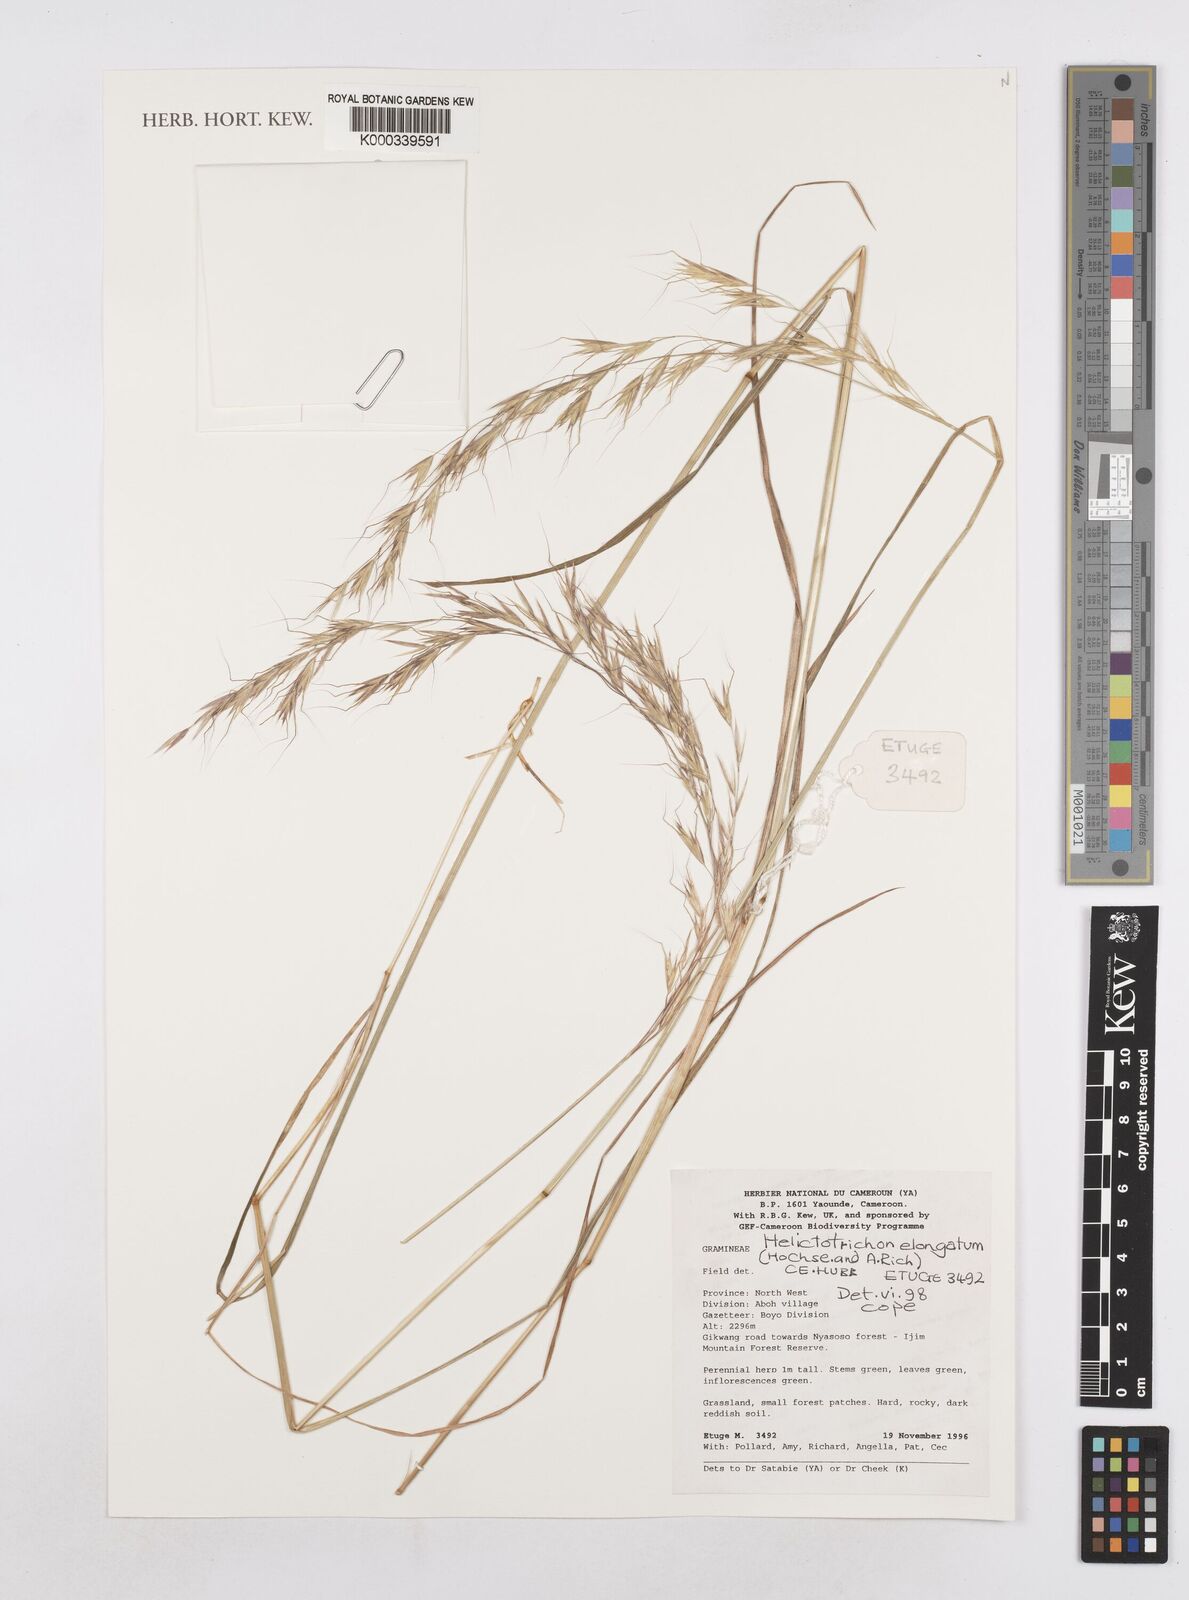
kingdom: Plantae
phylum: Tracheophyta
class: Liliopsida
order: Poales
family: Poaceae
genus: Trisetopsis
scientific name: Trisetopsis elongata
